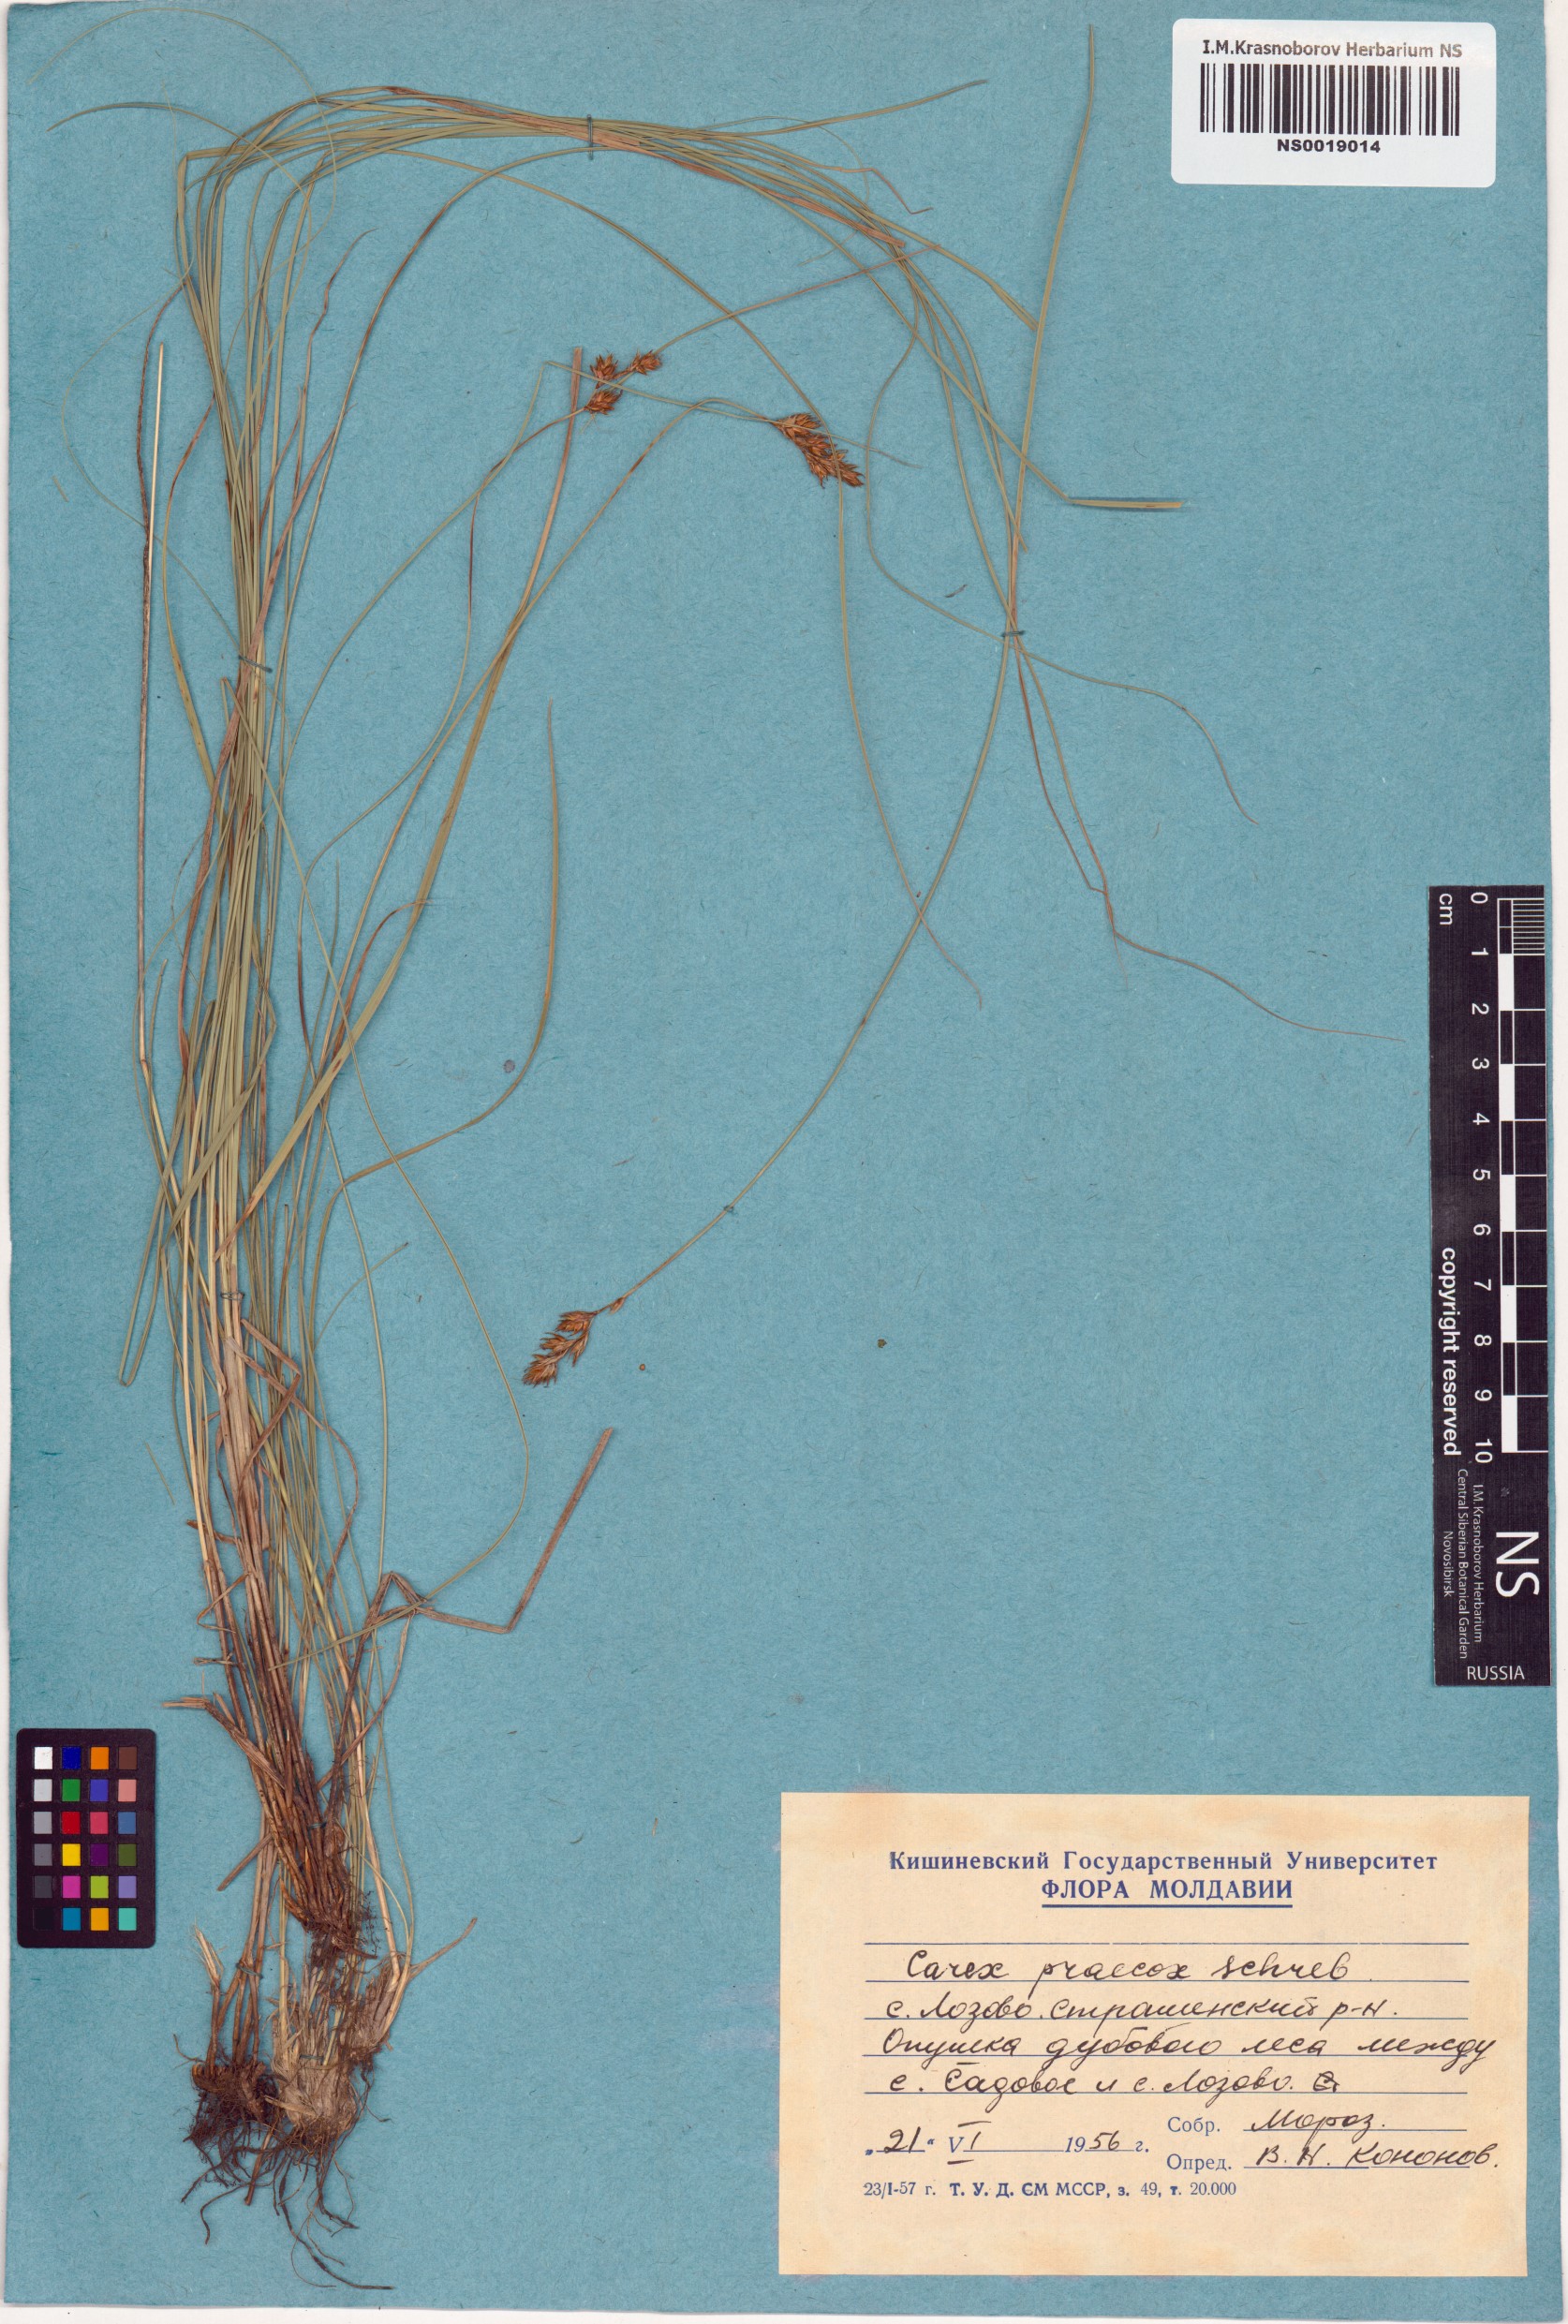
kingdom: Plantae
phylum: Tracheophyta
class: Liliopsida
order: Poales
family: Cyperaceae
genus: Carex
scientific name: Carex praecox
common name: Early sedge
